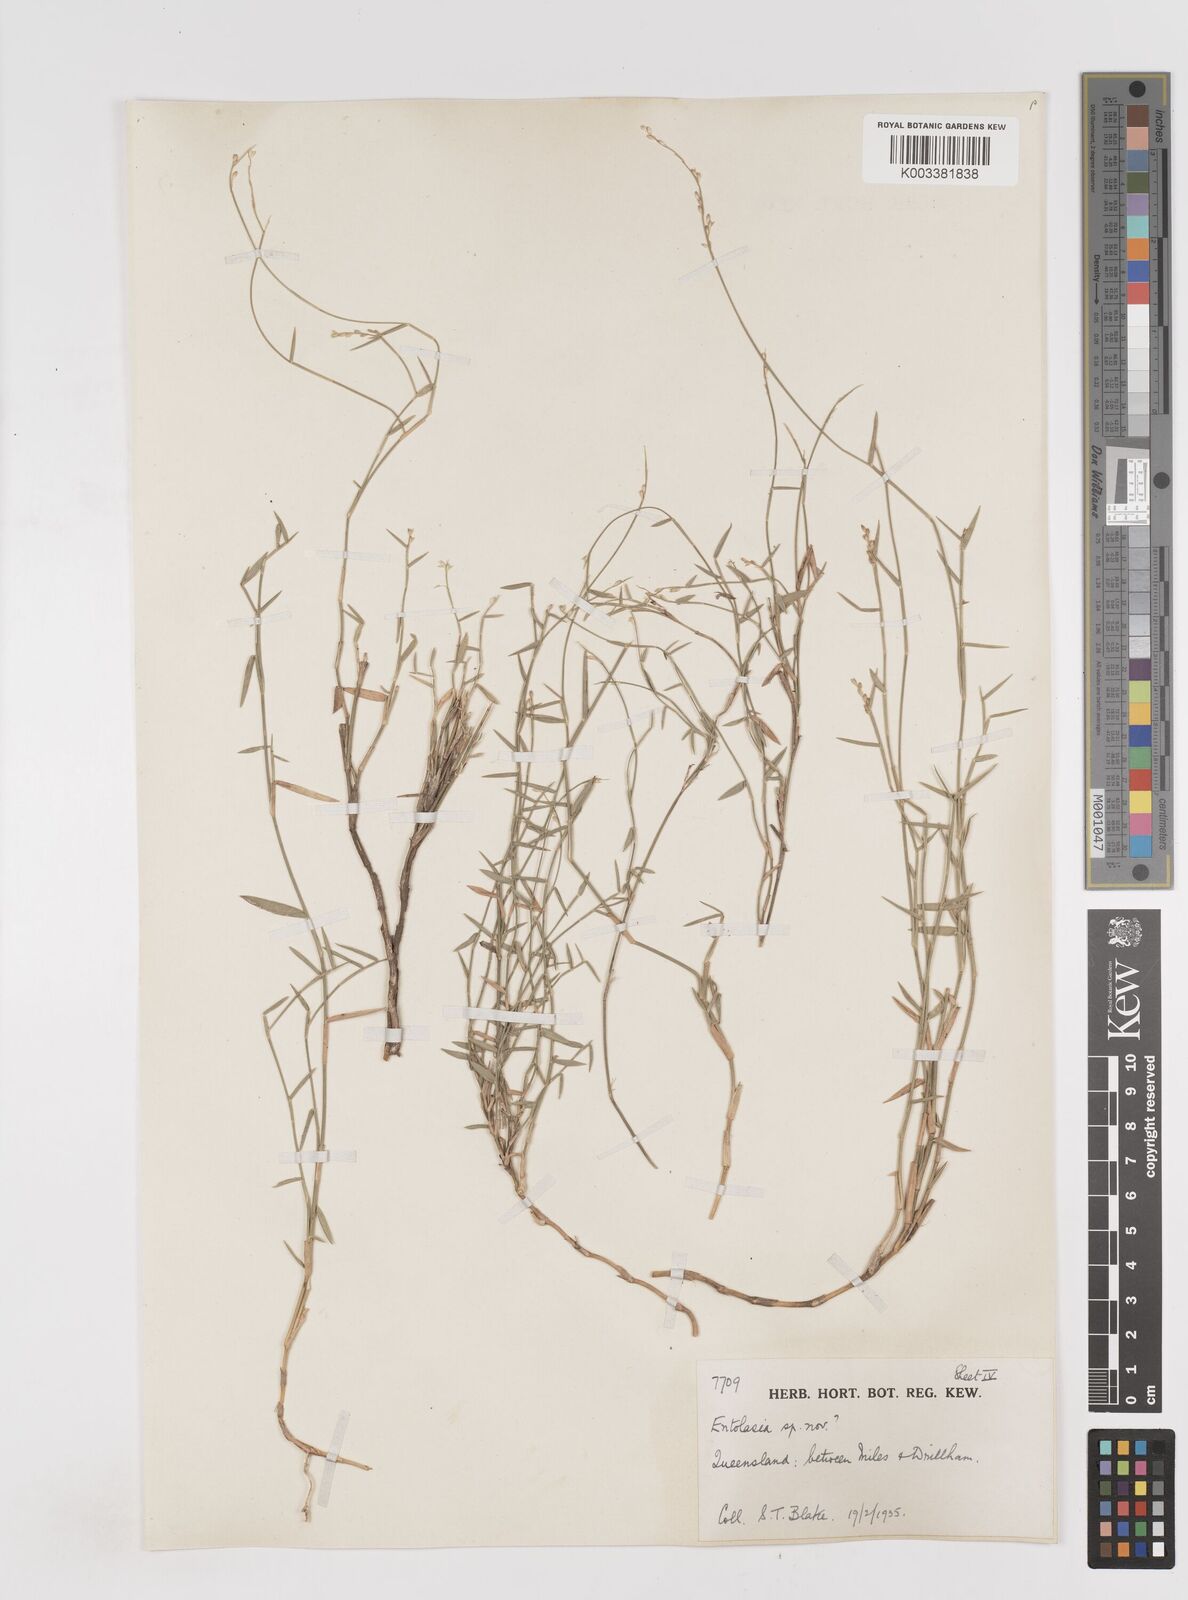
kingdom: Plantae
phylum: Tracheophyta
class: Liliopsida
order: Poales
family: Poaceae
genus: Entolasia
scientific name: Entolasia
